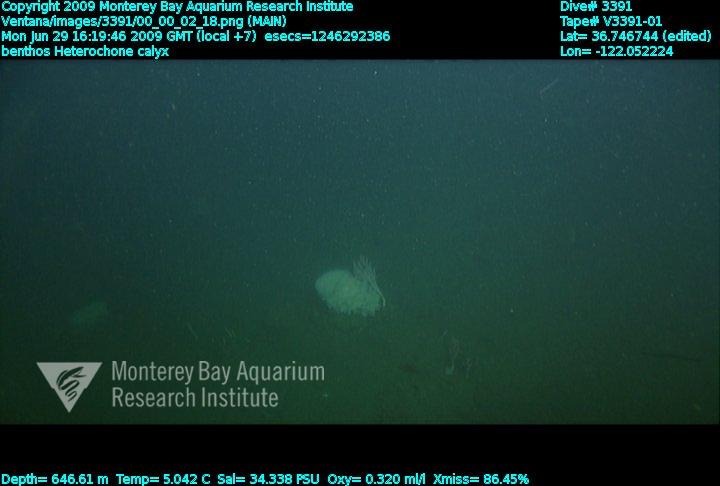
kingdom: Animalia
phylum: Porifera
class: Hexactinellida
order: Sceptrulophora
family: Aphrocallistidae
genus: Heterochone
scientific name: Heterochone calyx
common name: Fingered goblet glass sponge
